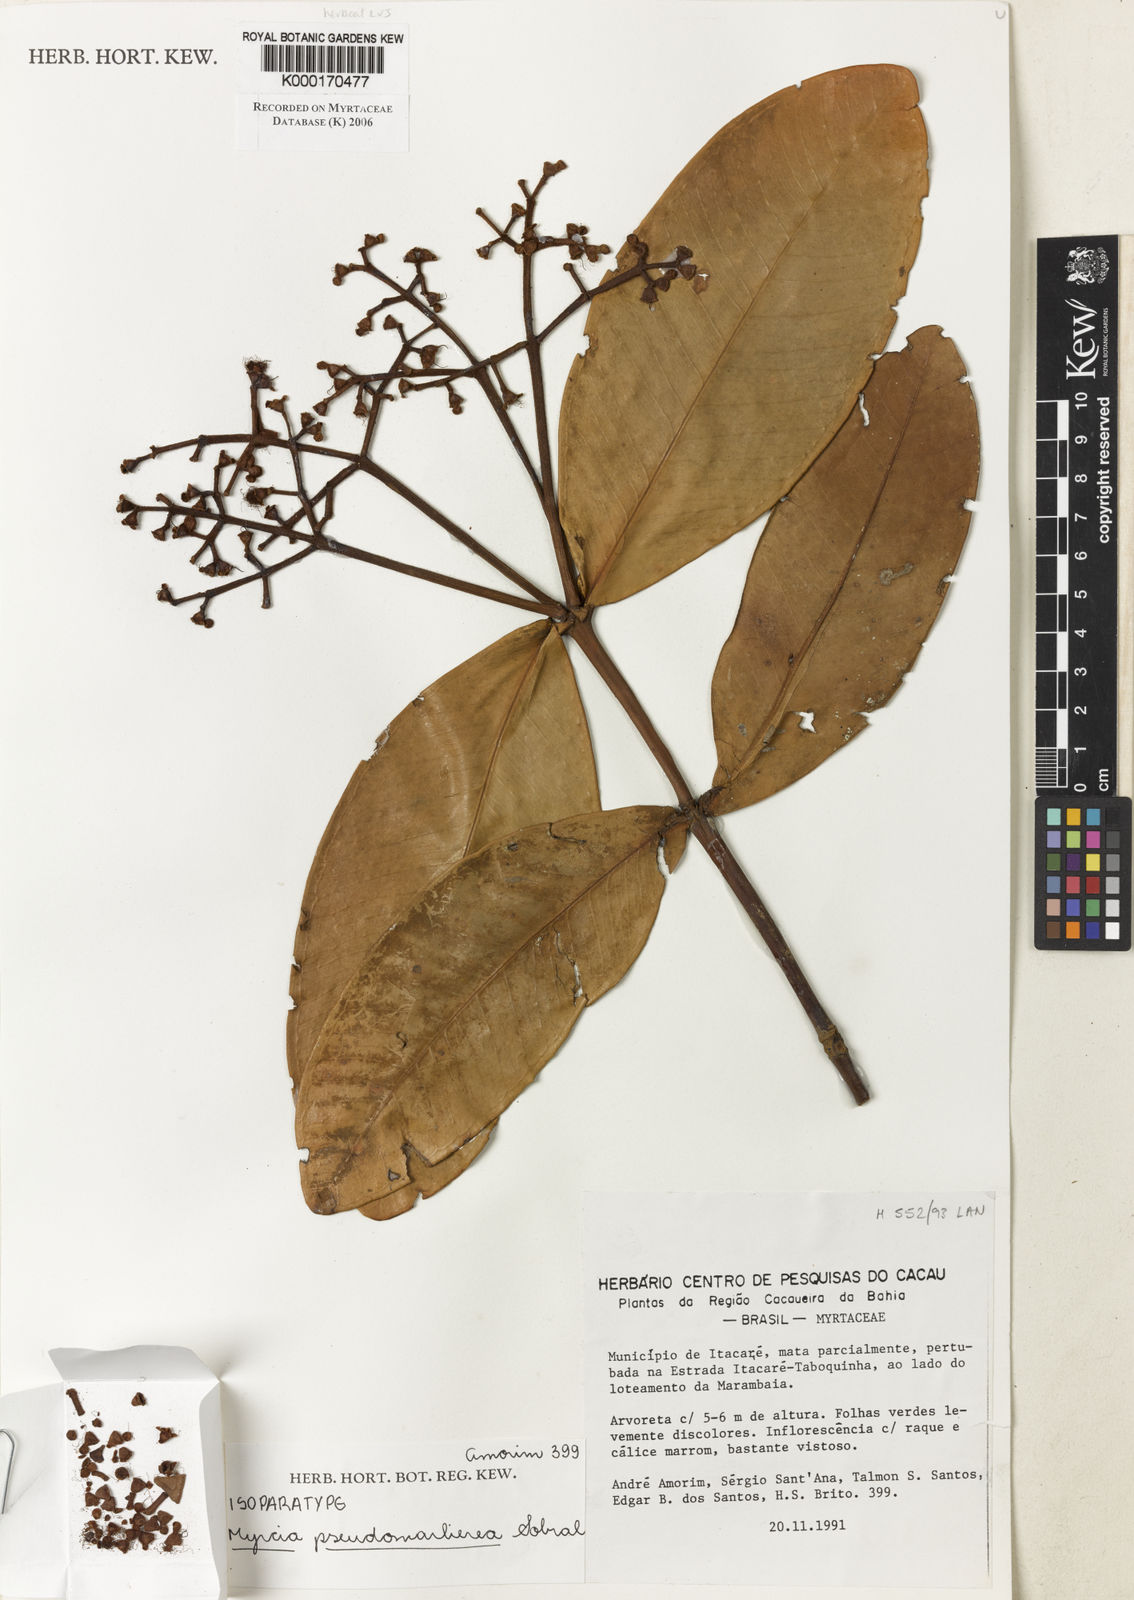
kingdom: Plantae
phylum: Tracheophyta
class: Magnoliopsida
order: Myrtales
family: Myrtaceae
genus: Myrcia
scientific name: Myrcia pseudomarlierea
